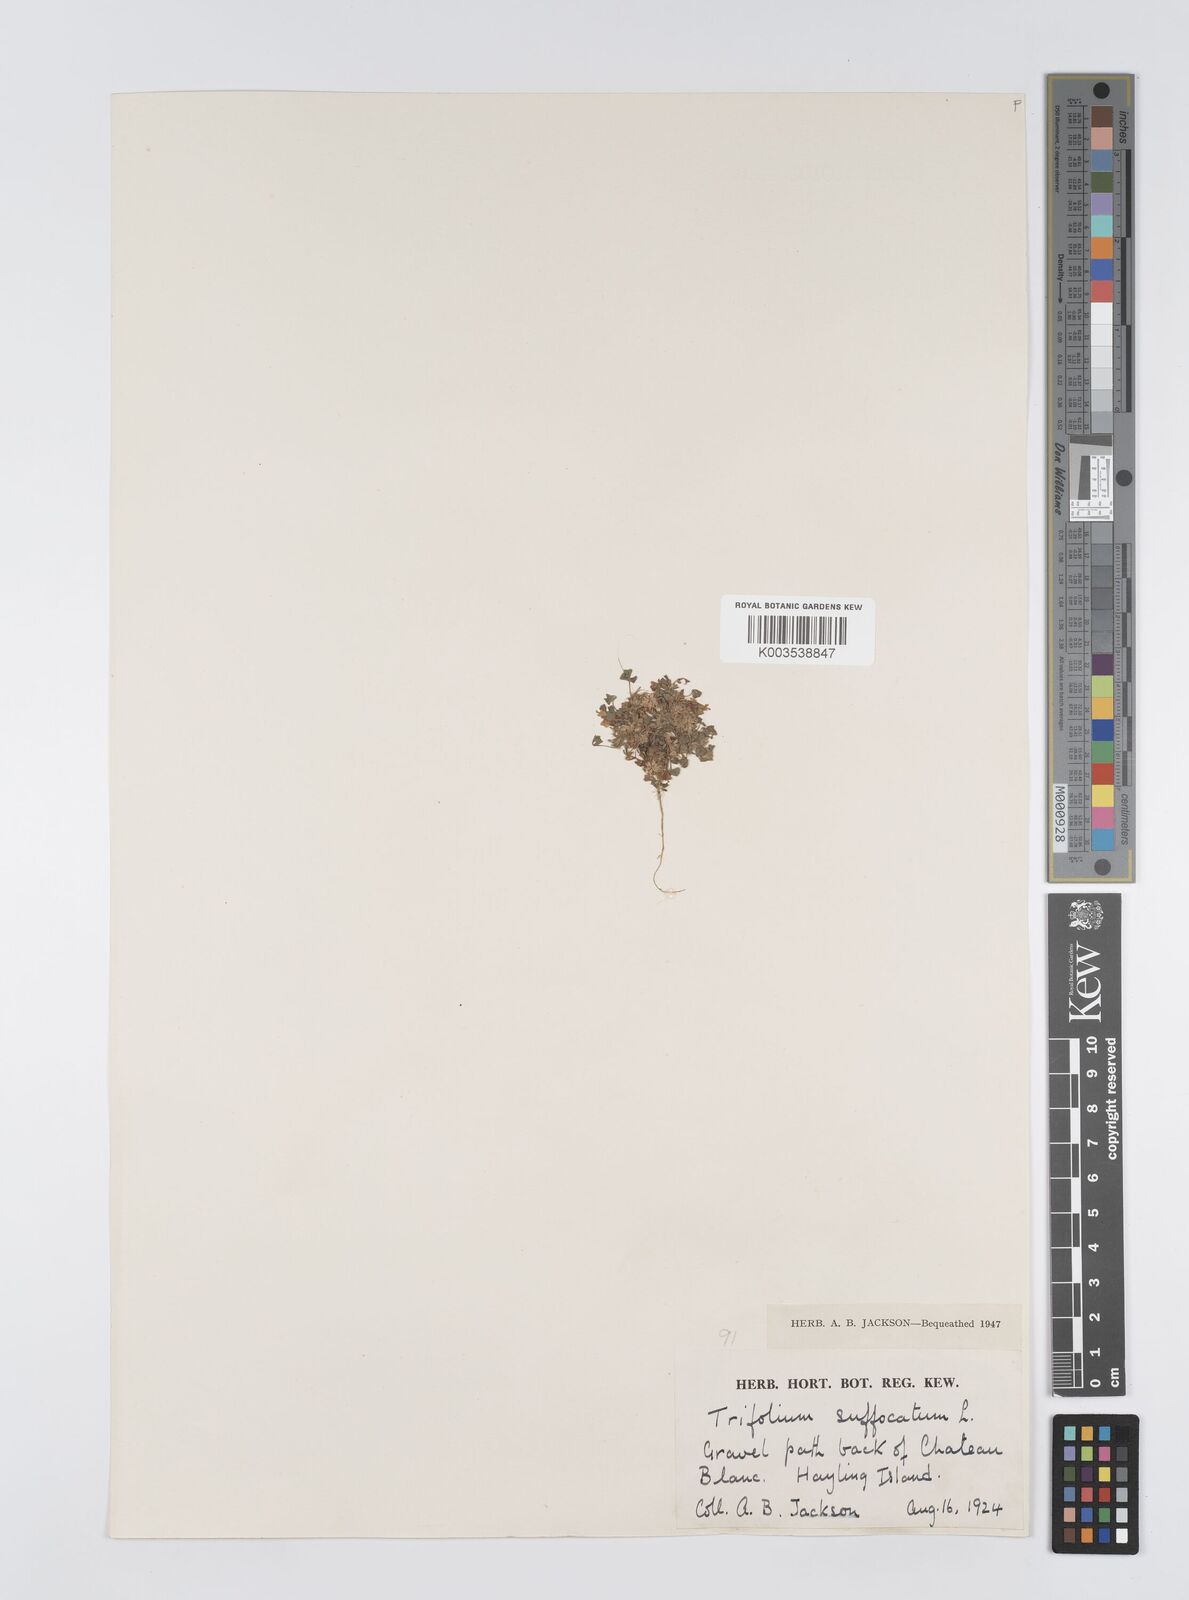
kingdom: Plantae
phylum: Tracheophyta
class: Magnoliopsida
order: Fabales
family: Fabaceae
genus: Trifolium
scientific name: Trifolium suffocatum
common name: Suffocated clover
